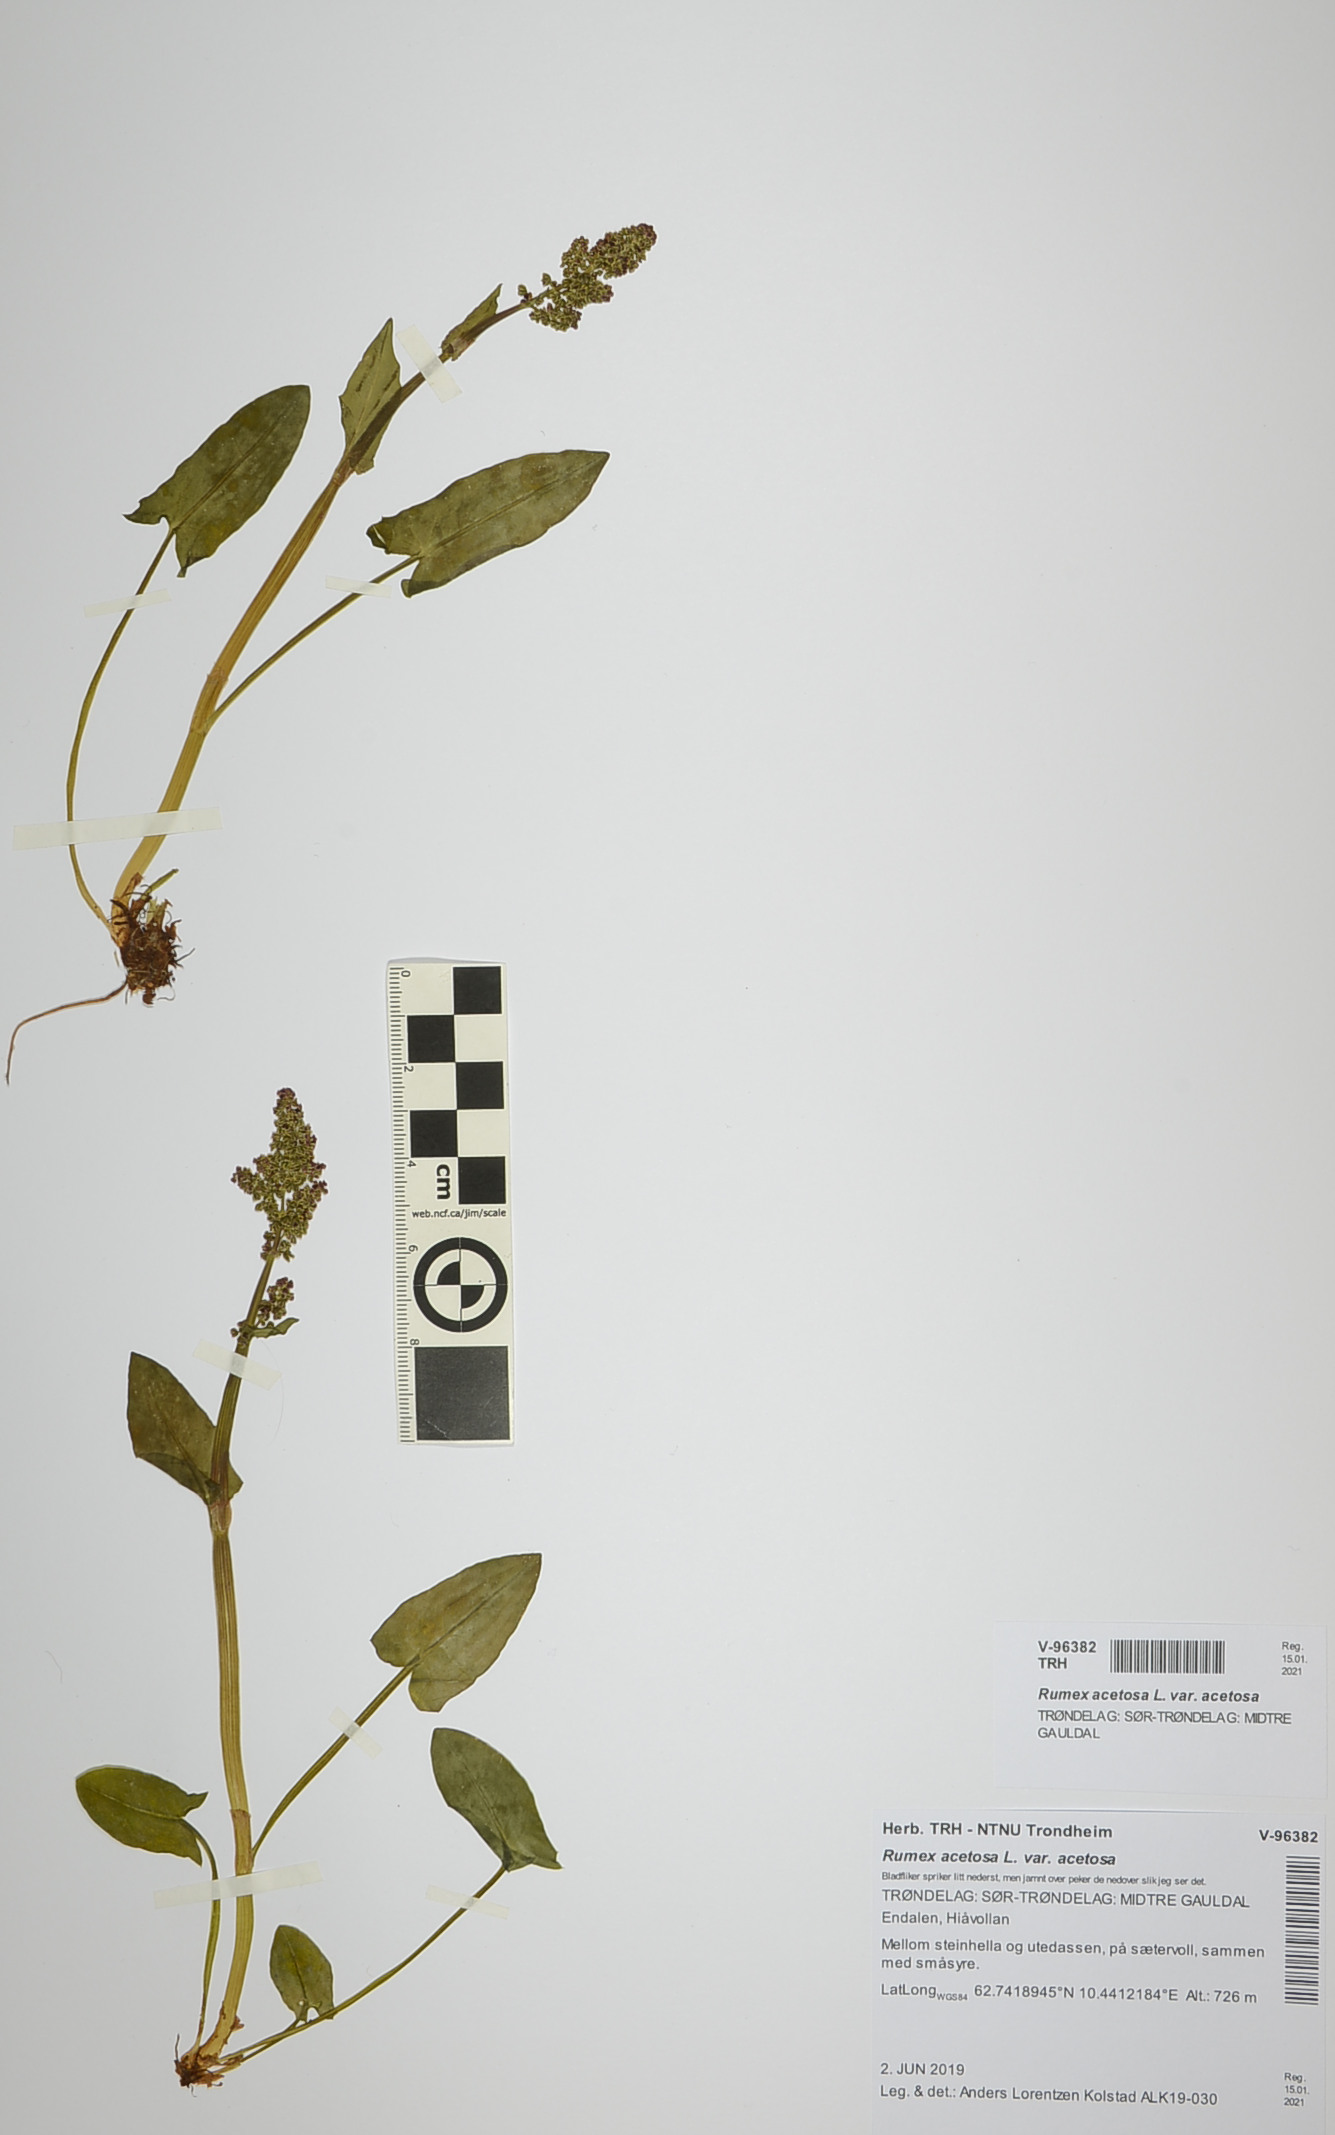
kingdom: Plantae
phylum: Tracheophyta
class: Magnoliopsida
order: Caryophyllales
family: Polygonaceae
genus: Rumex
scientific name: Rumex acetosa
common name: Garden sorrel
